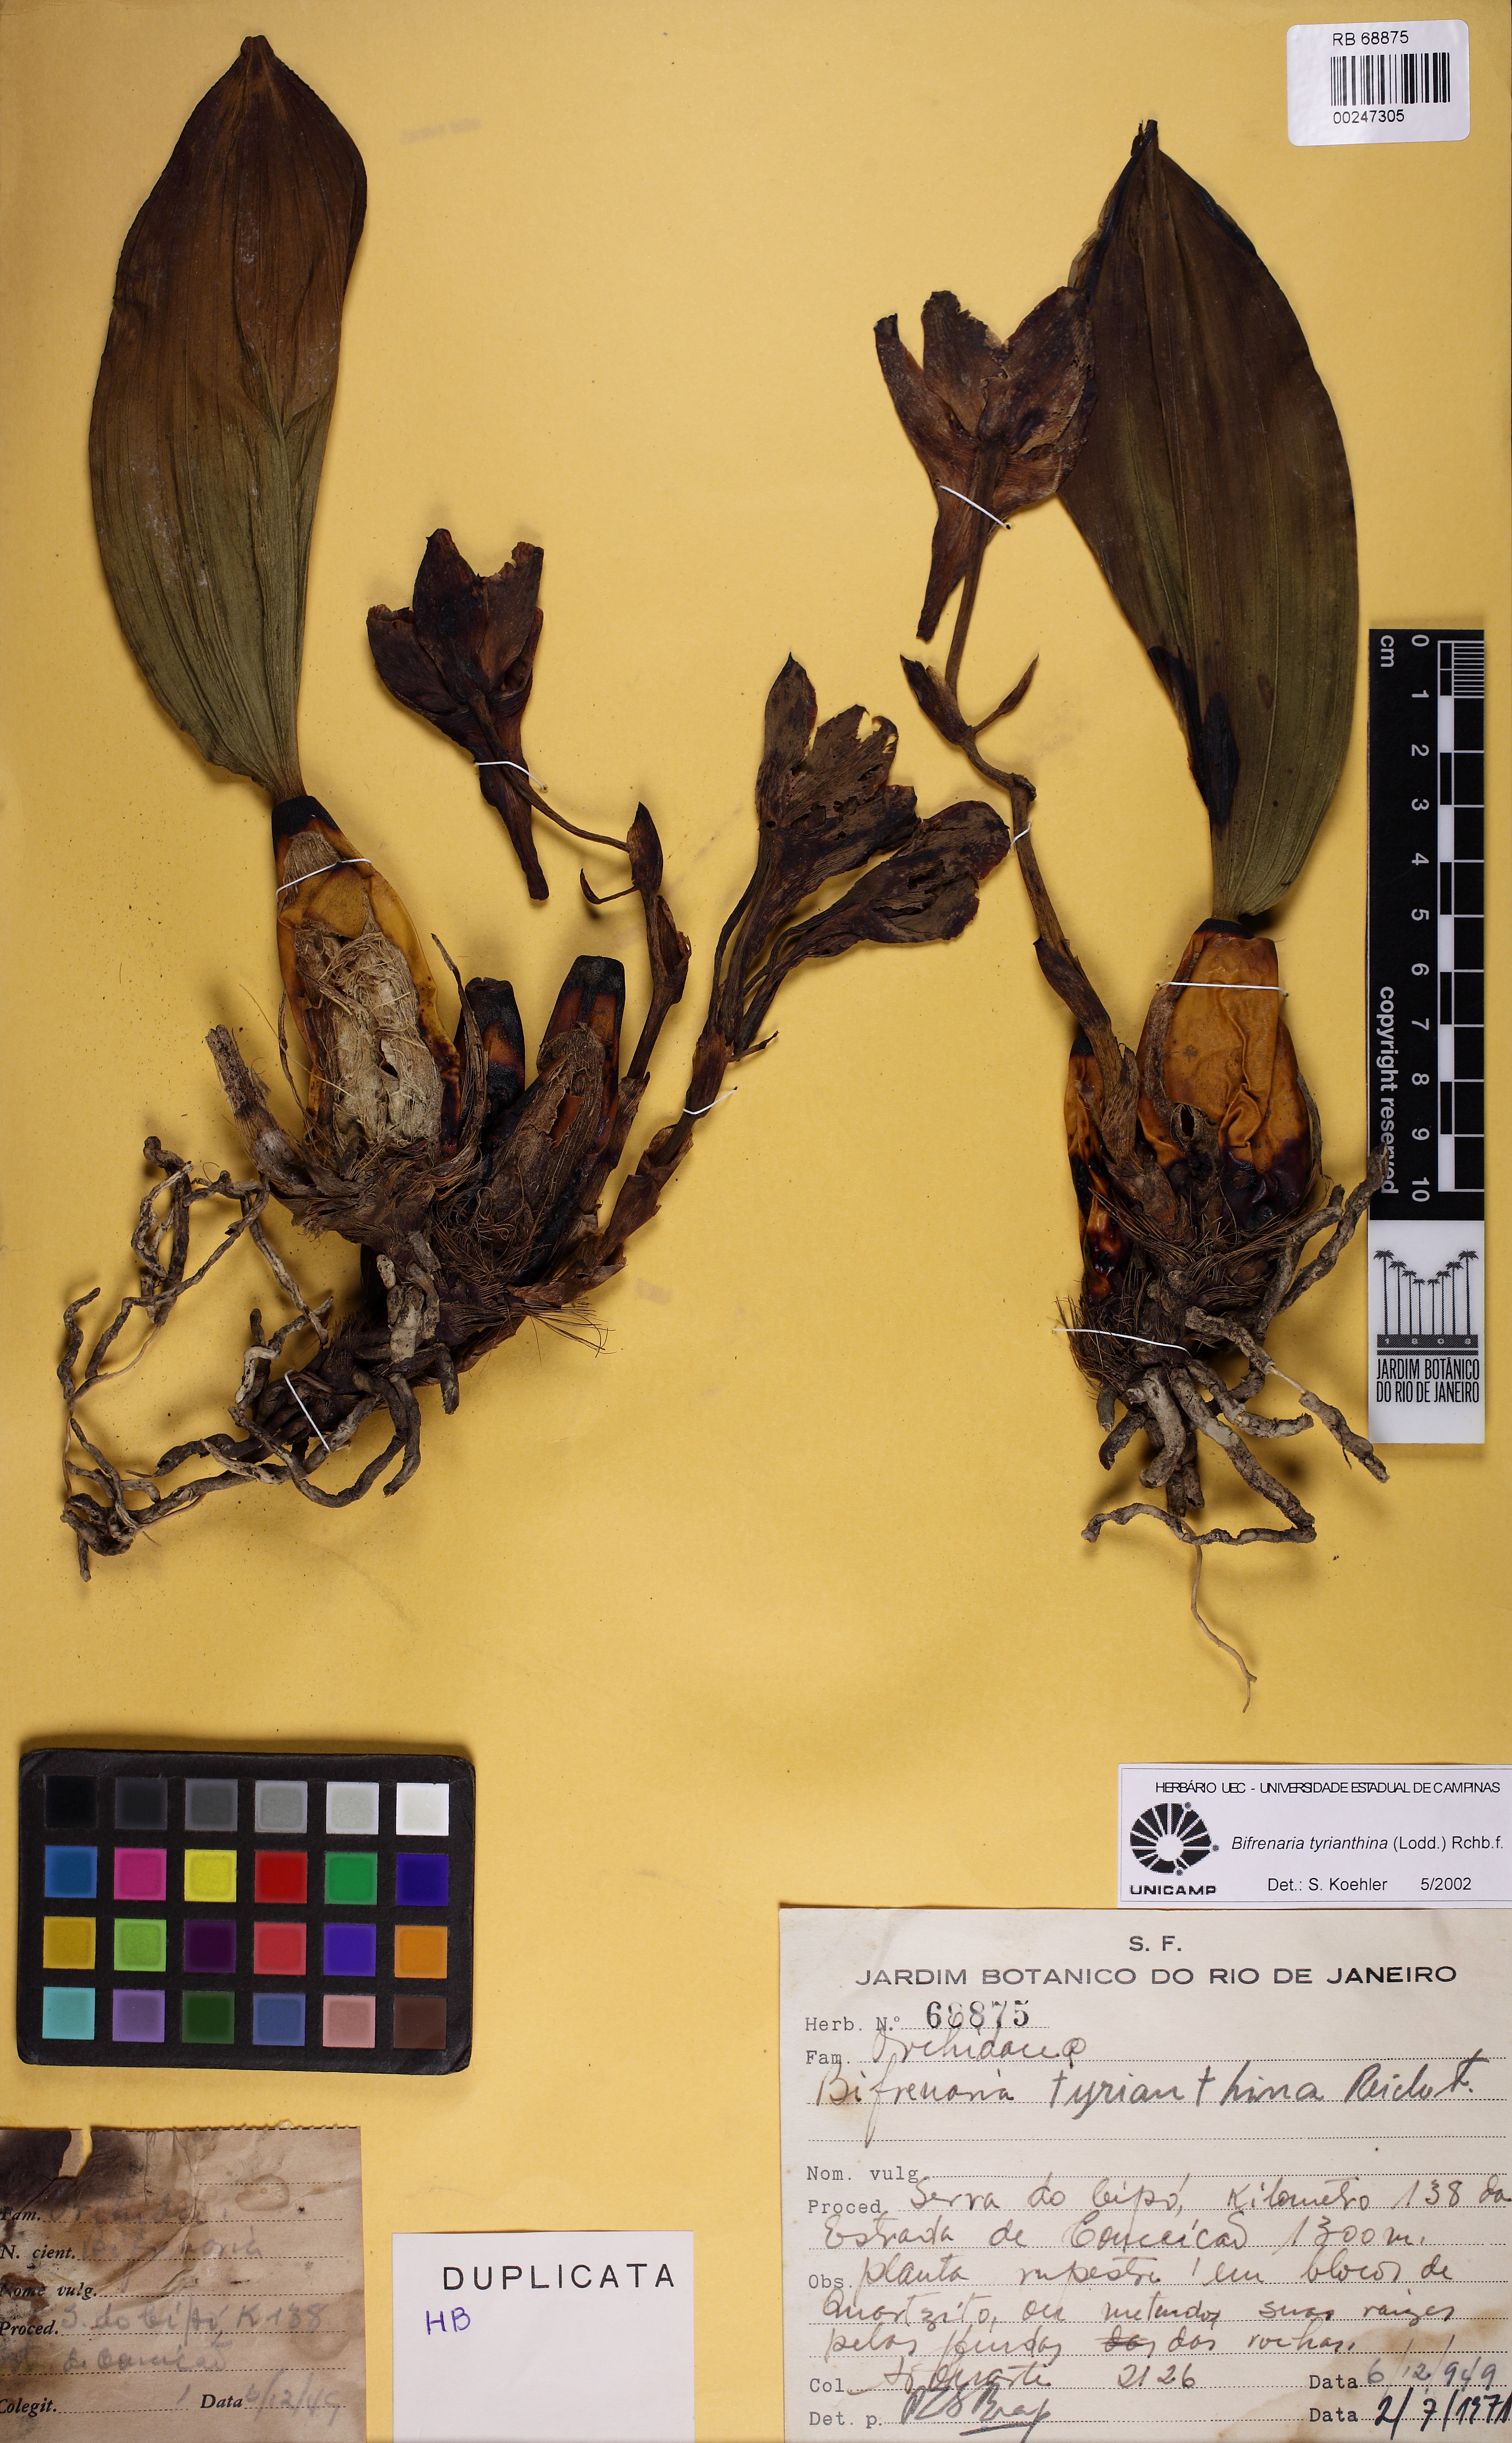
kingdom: Plantae
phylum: Tracheophyta
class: Liliopsida
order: Asparagales
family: Orchidaceae
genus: Bifrenaria
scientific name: Bifrenaria tyrianthina
